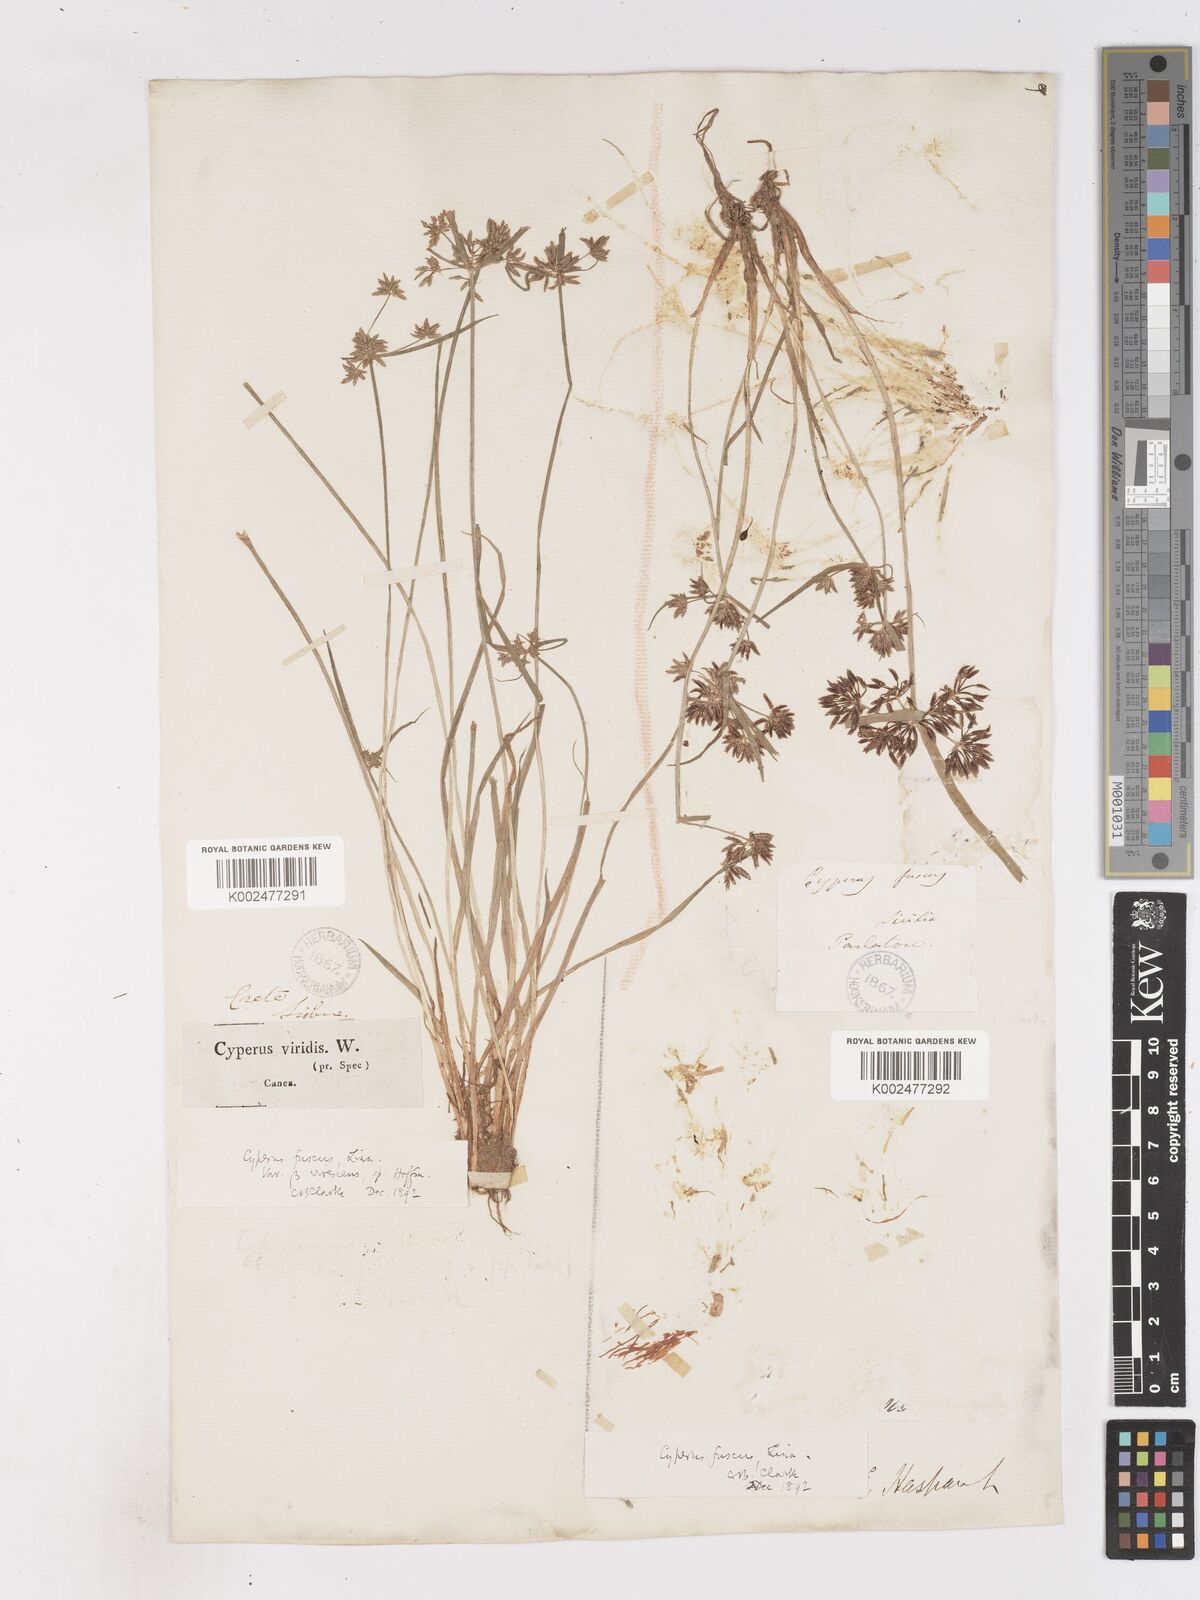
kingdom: Plantae
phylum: Tracheophyta
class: Liliopsida
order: Poales
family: Cyperaceae
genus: Cyperus
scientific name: Cyperus fuscus
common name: Brown galingale
